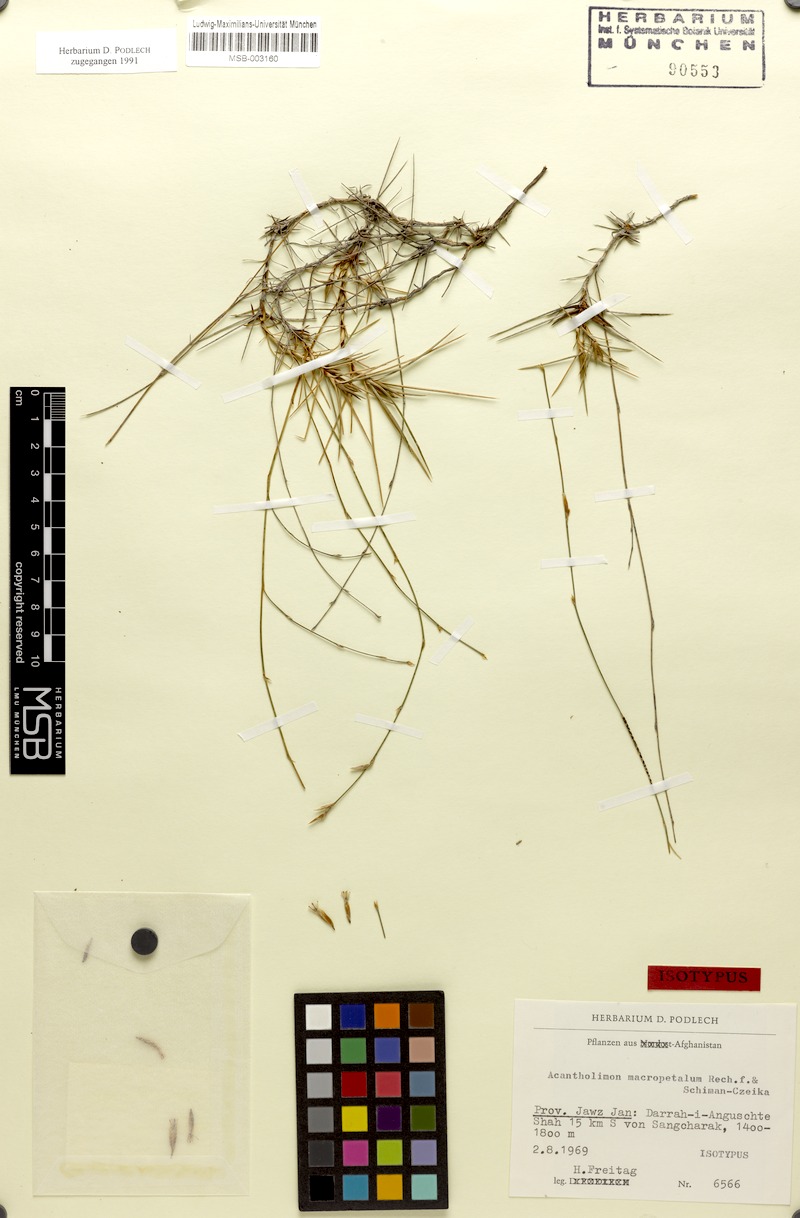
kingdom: Plantae
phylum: Tracheophyta
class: Magnoliopsida
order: Caryophyllales
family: Plumbaginaceae
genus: Acantholimon
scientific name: Acantholimon macropetalum
